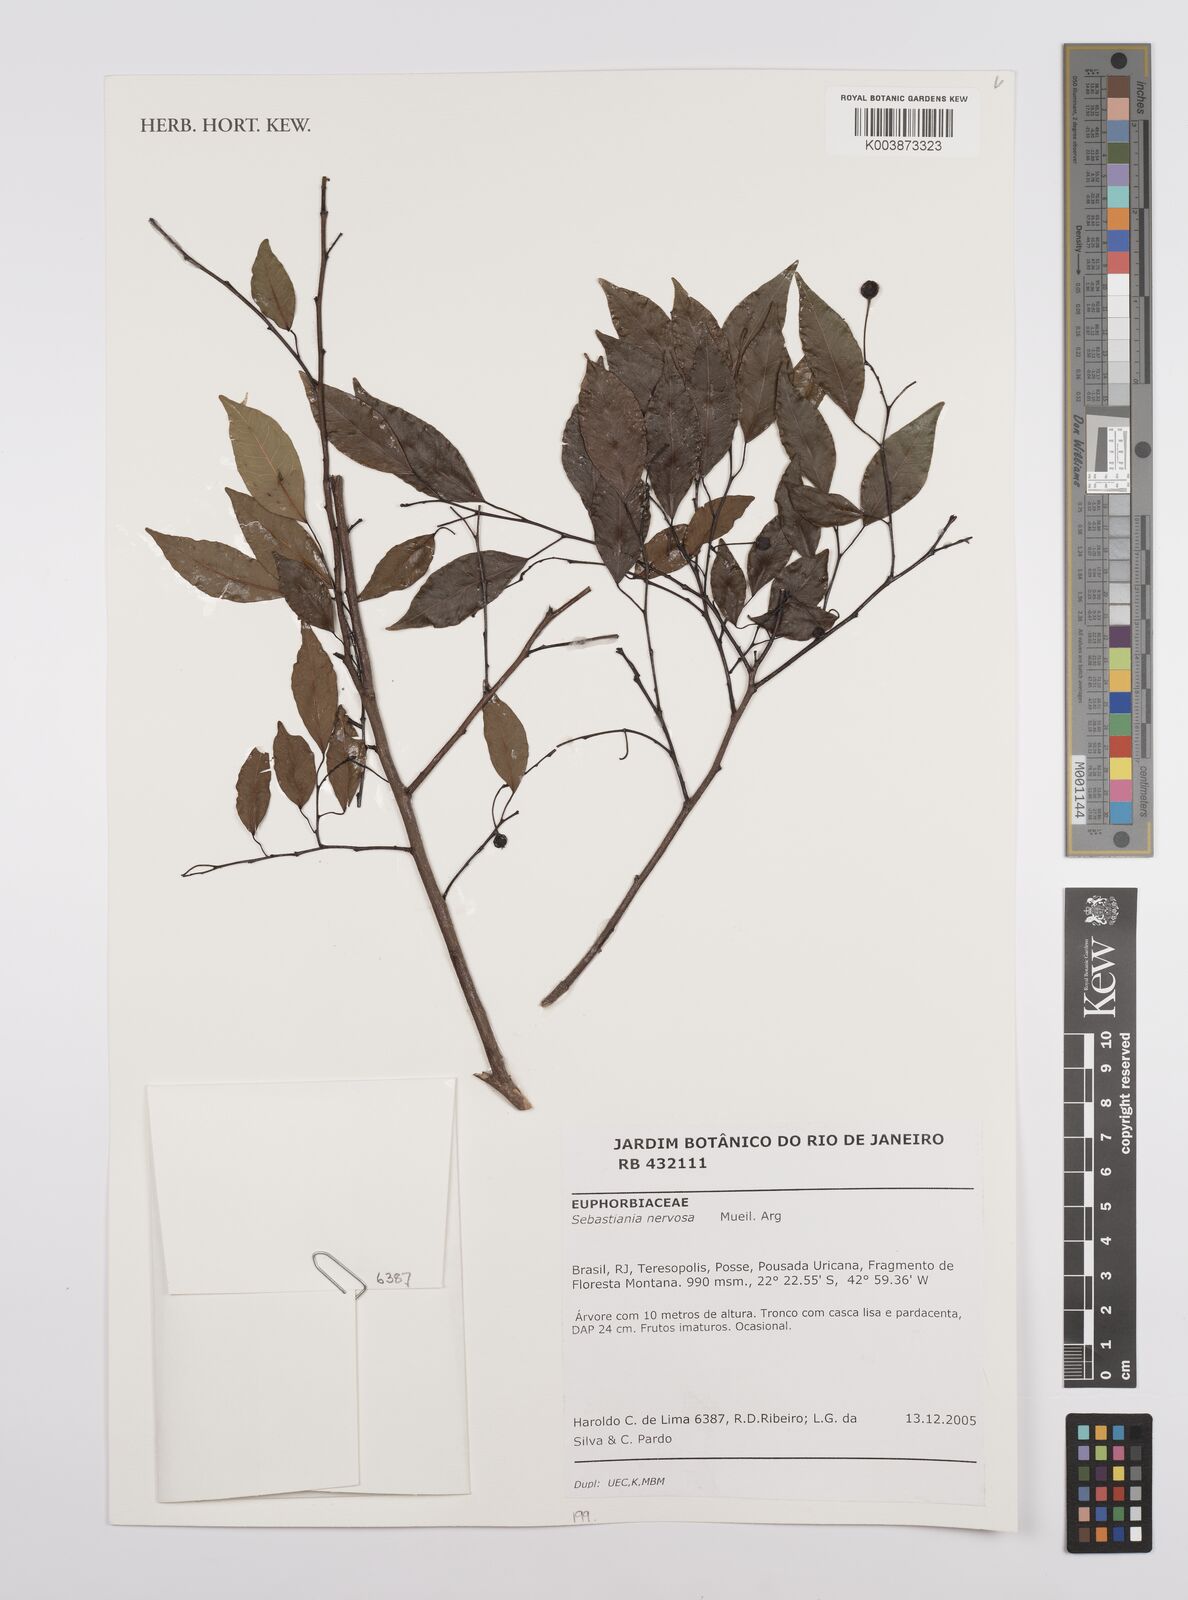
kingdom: Plantae
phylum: Tracheophyta
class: Magnoliopsida
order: Malpighiales
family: Euphorbiaceae
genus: Gymnanthes
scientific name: Gymnanthes nervosa
